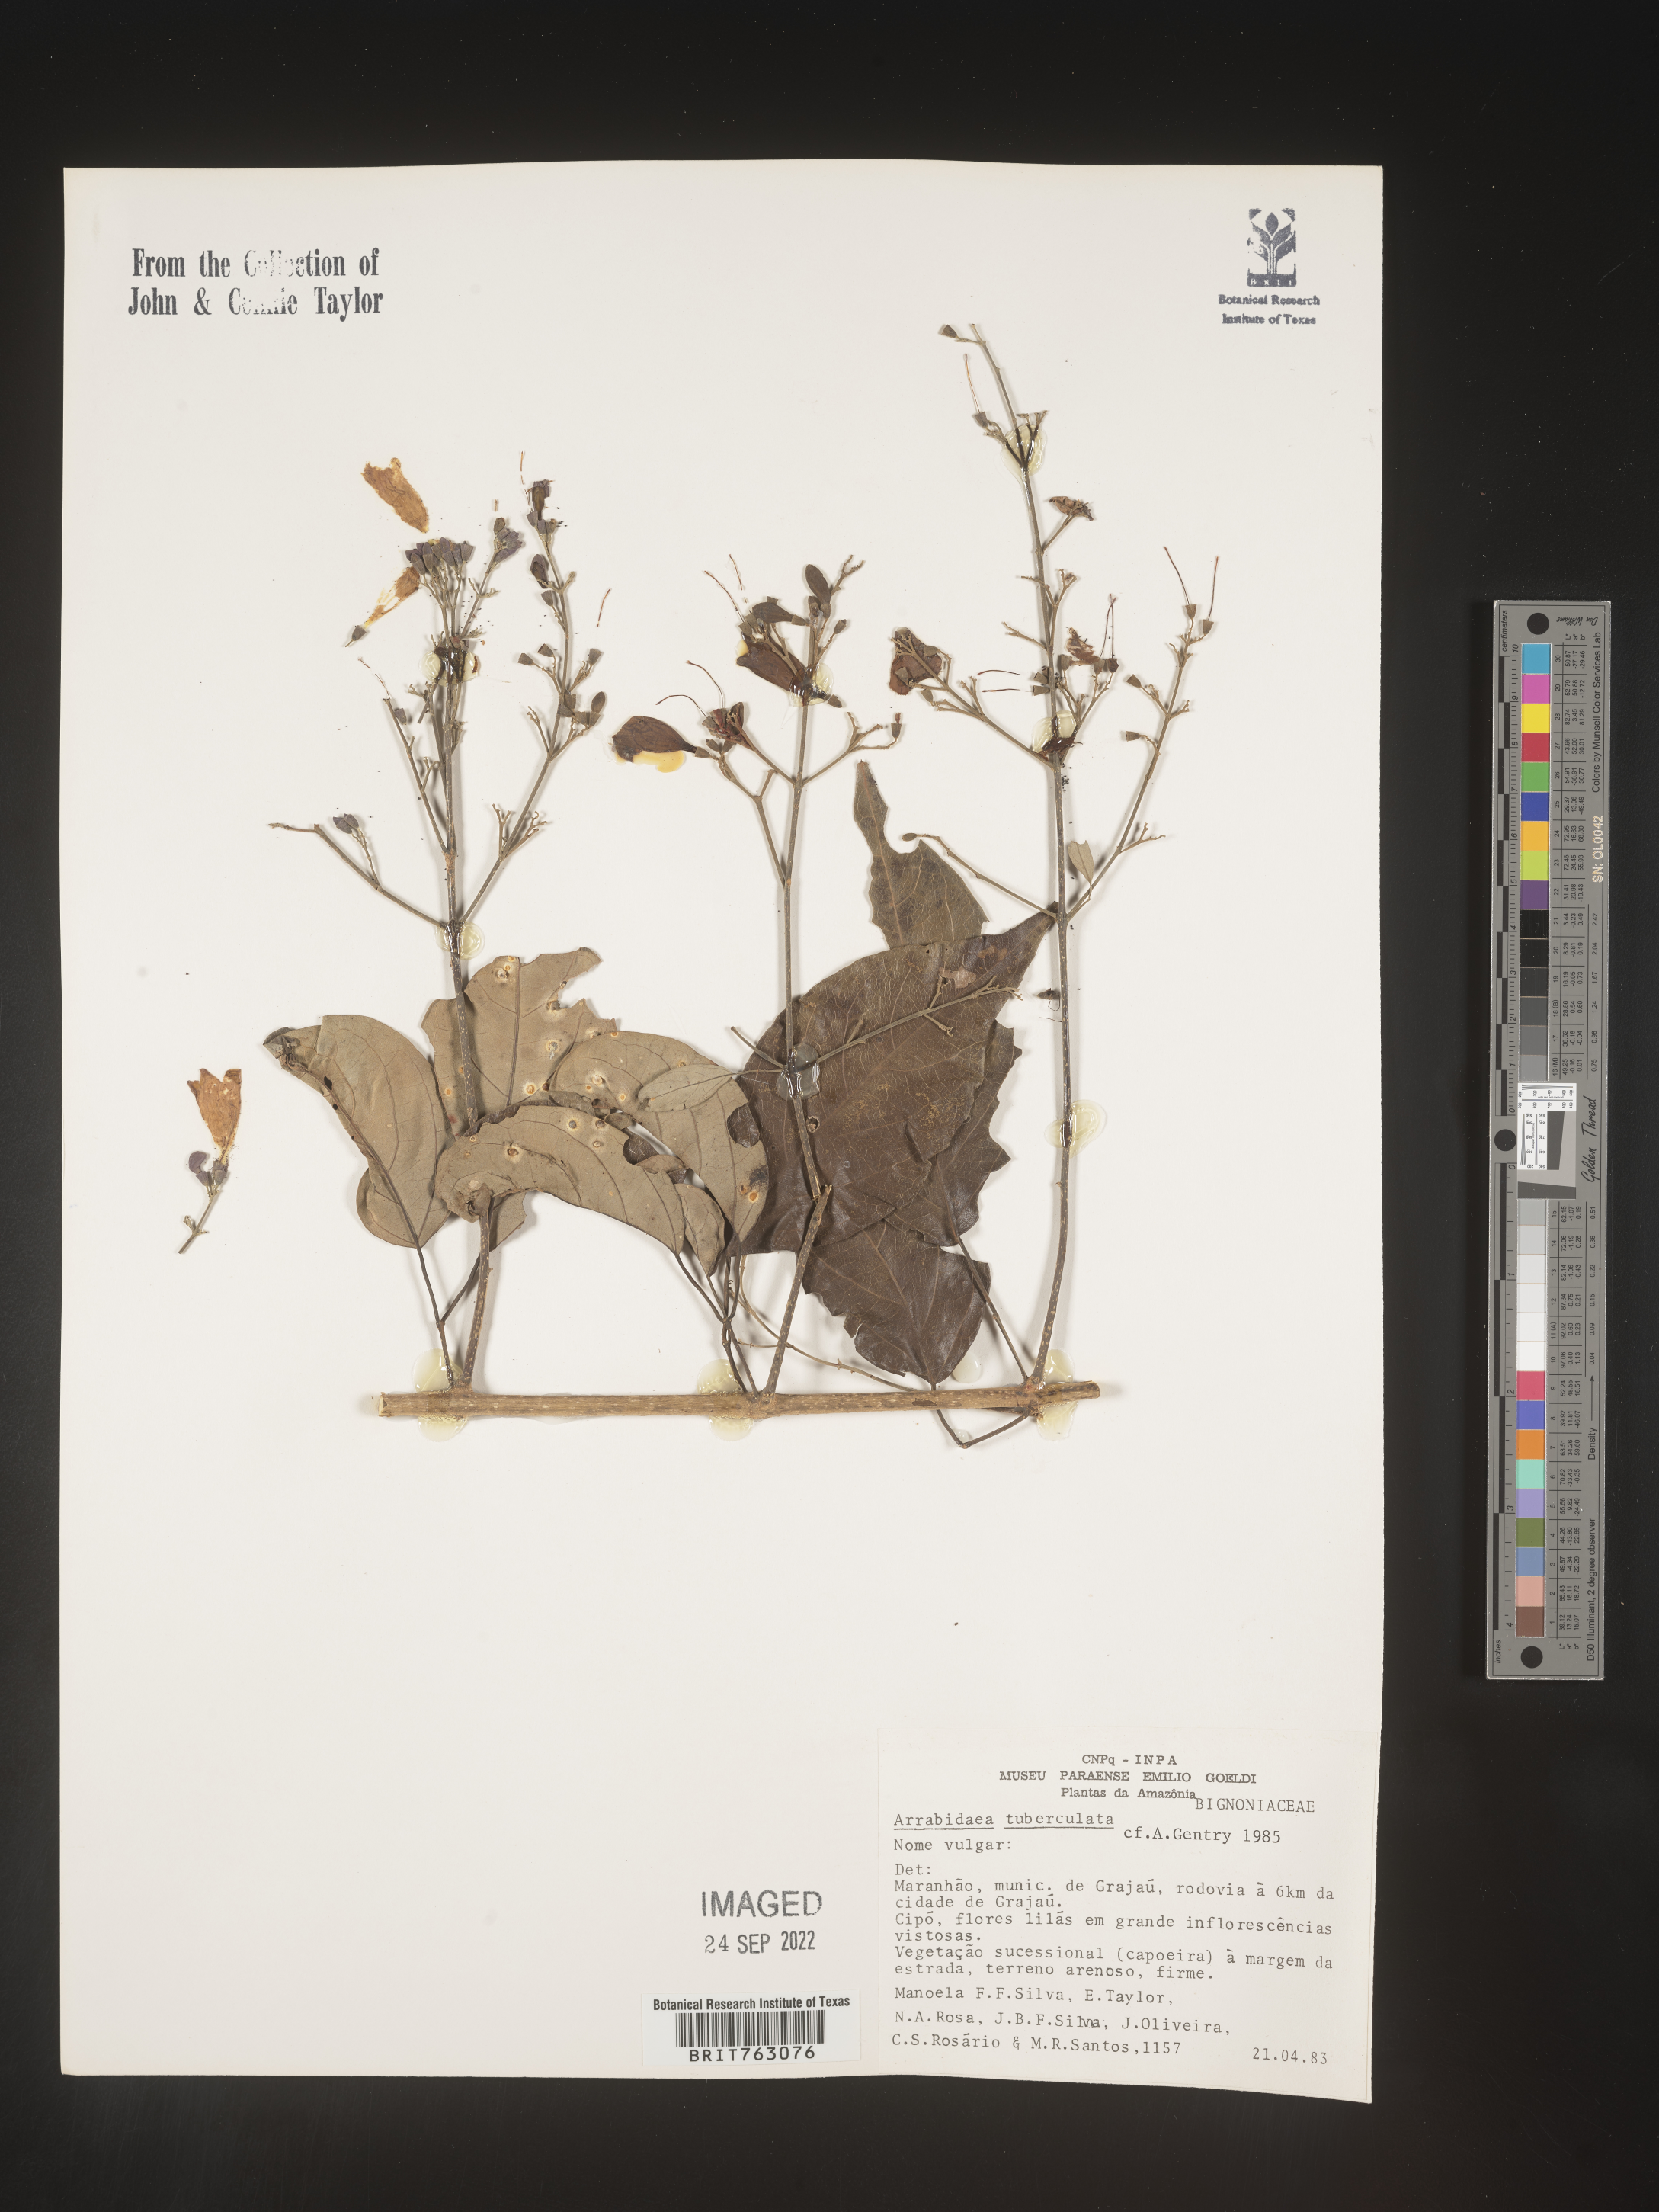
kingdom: Plantae
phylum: Tracheophyta
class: Magnoliopsida
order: Rosales
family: Rhamnaceae
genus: Arrabidaea
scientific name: Arrabidaea
